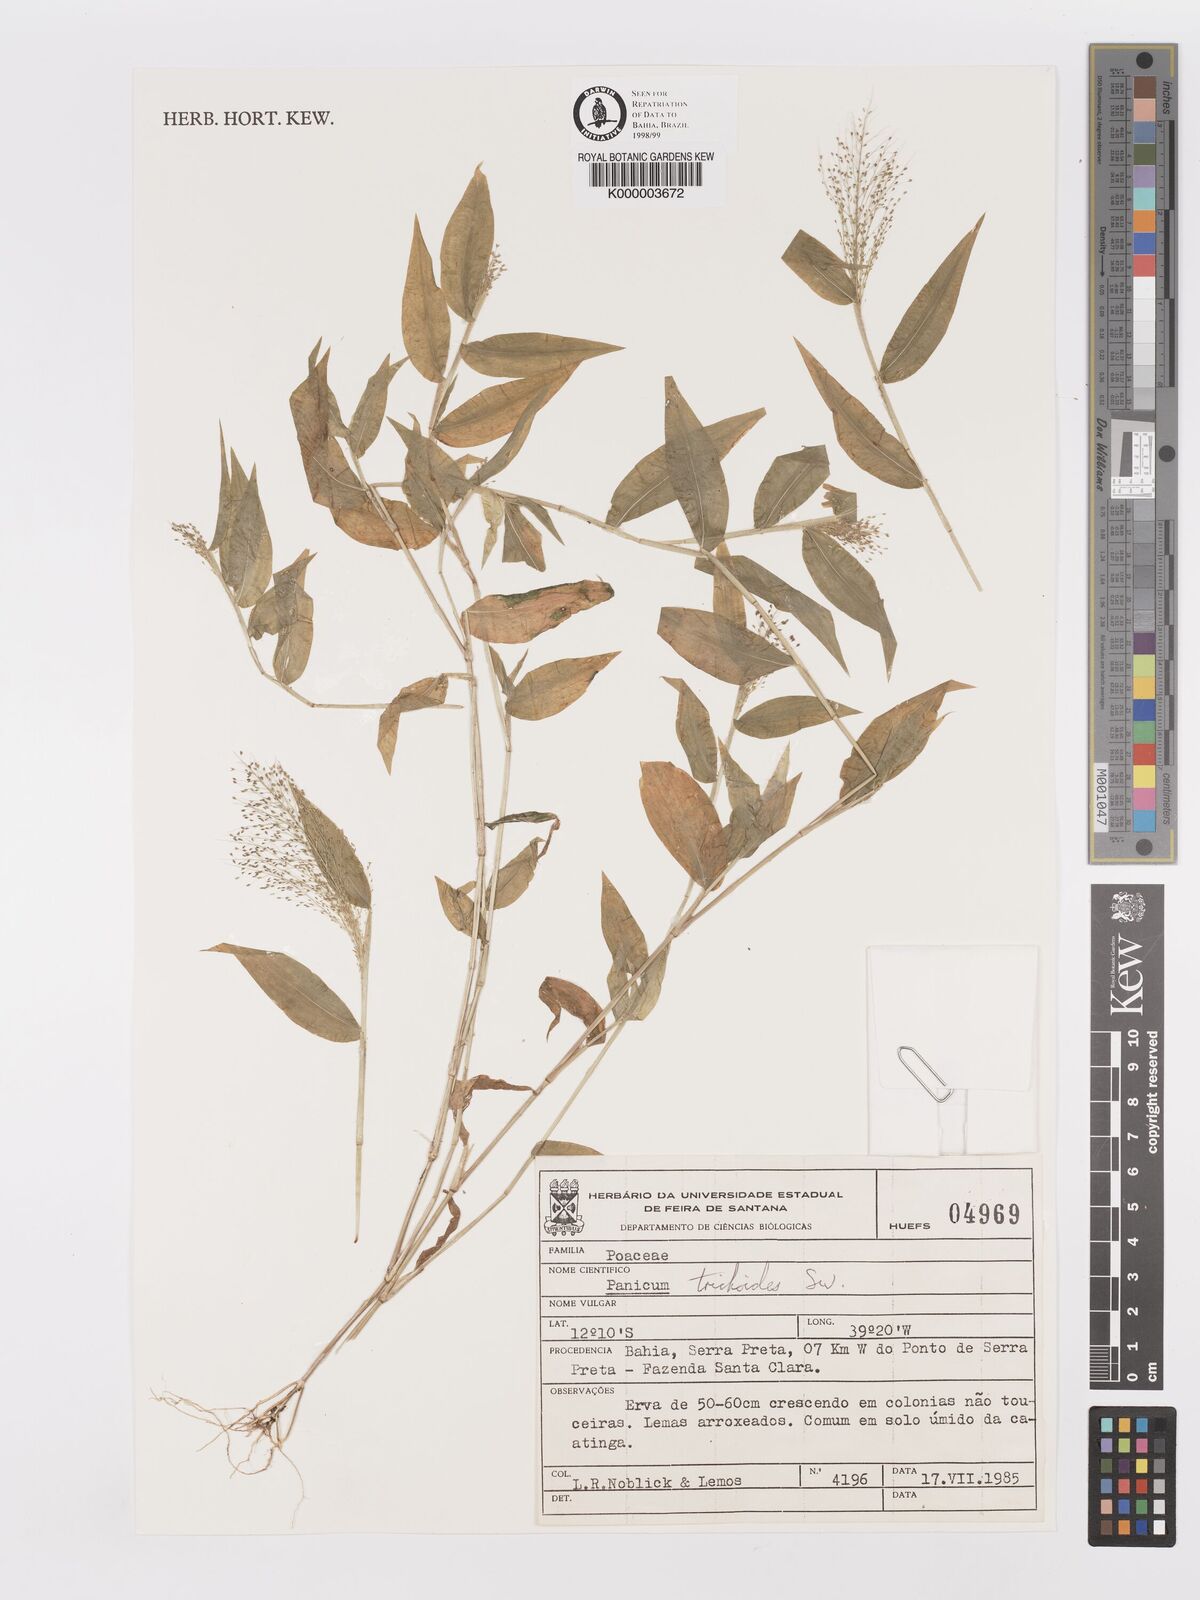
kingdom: Plantae
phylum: Tracheophyta
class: Liliopsida
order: Poales
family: Poaceae
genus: Panicum
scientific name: Panicum
